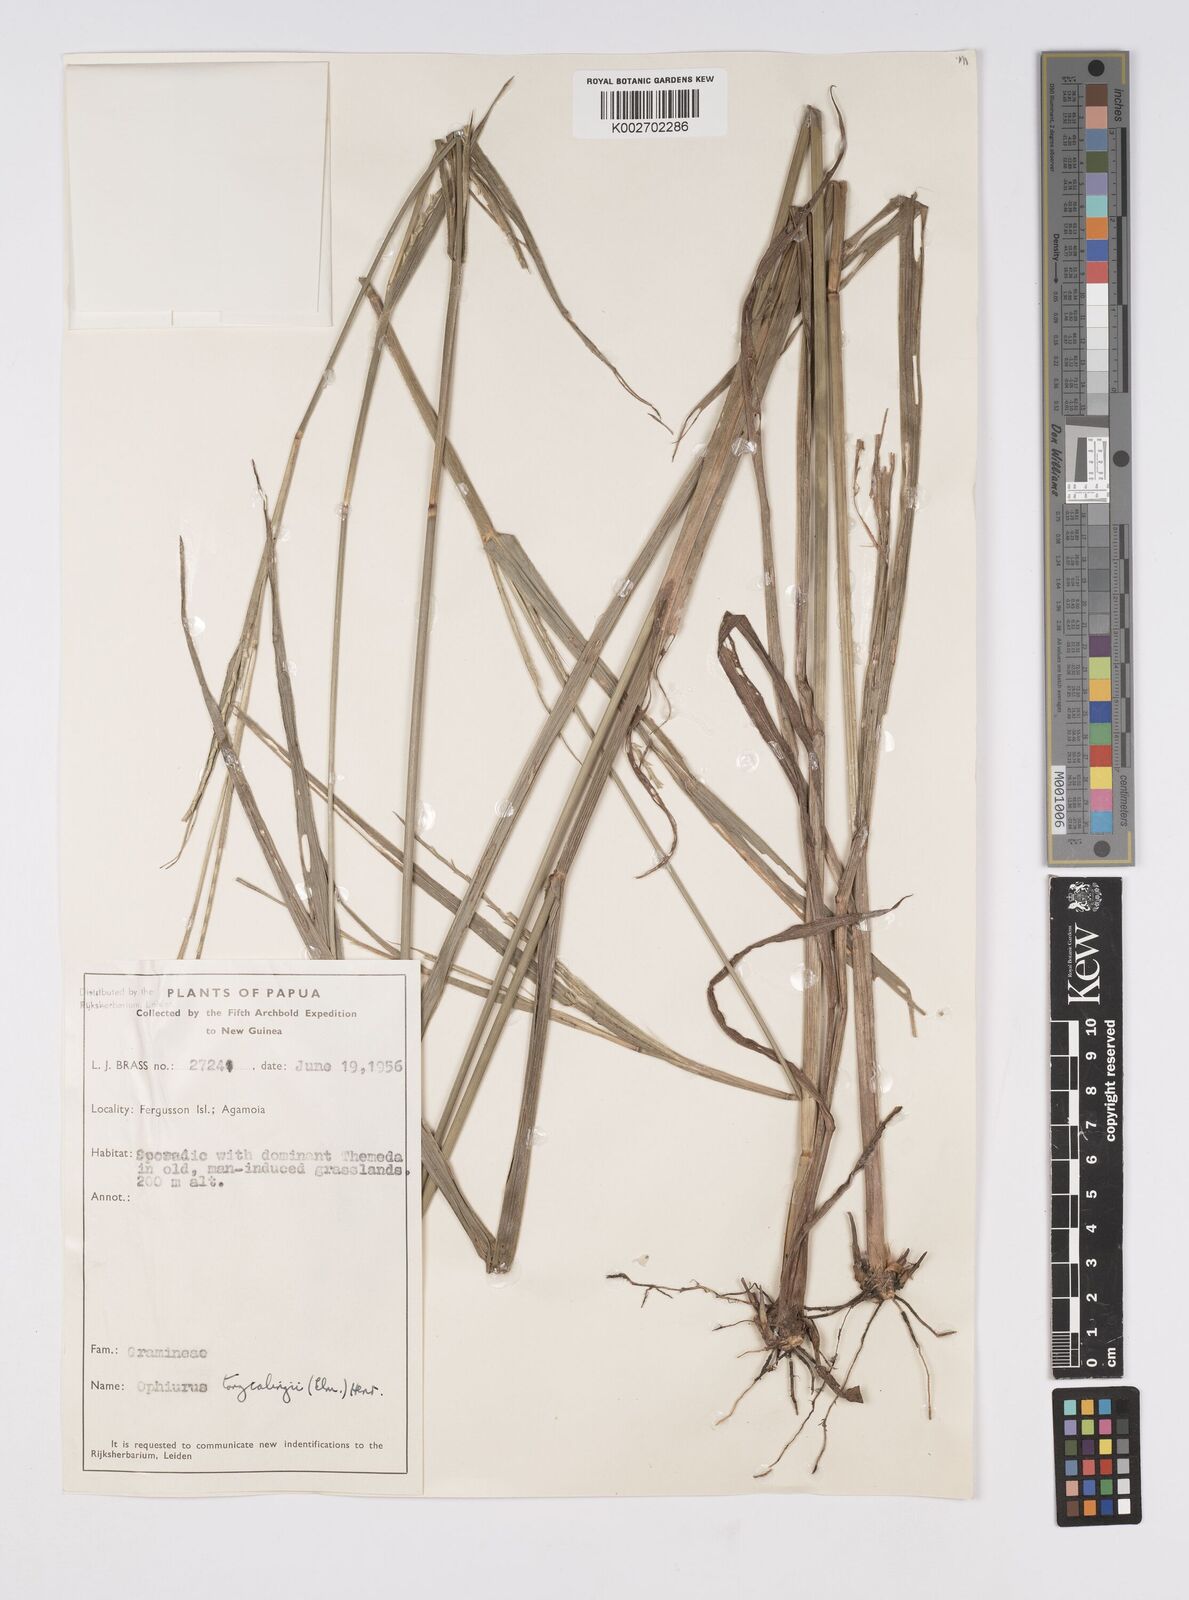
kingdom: Plantae
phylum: Tracheophyta
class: Liliopsida
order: Poales
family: Poaceae
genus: Ophiuros
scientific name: Ophiuros exaltatus
